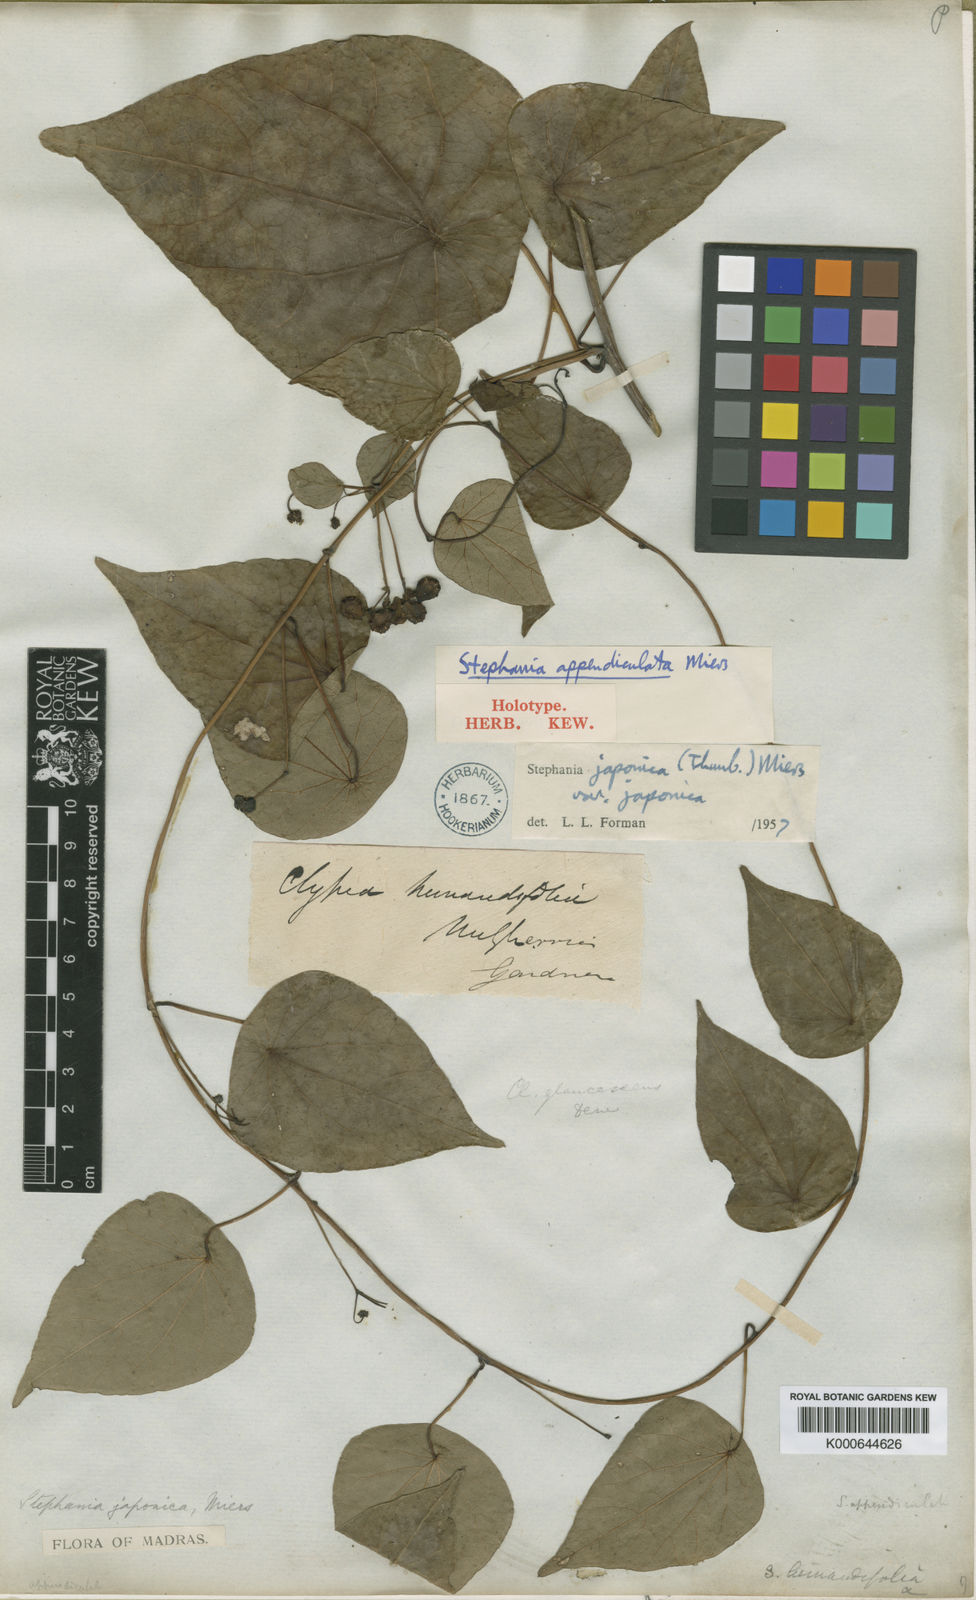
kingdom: Plantae
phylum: Tracheophyta
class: Magnoliopsida
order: Ranunculales
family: Menispermaceae
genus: Stephania
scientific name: Stephania japonica
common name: Snake vine
